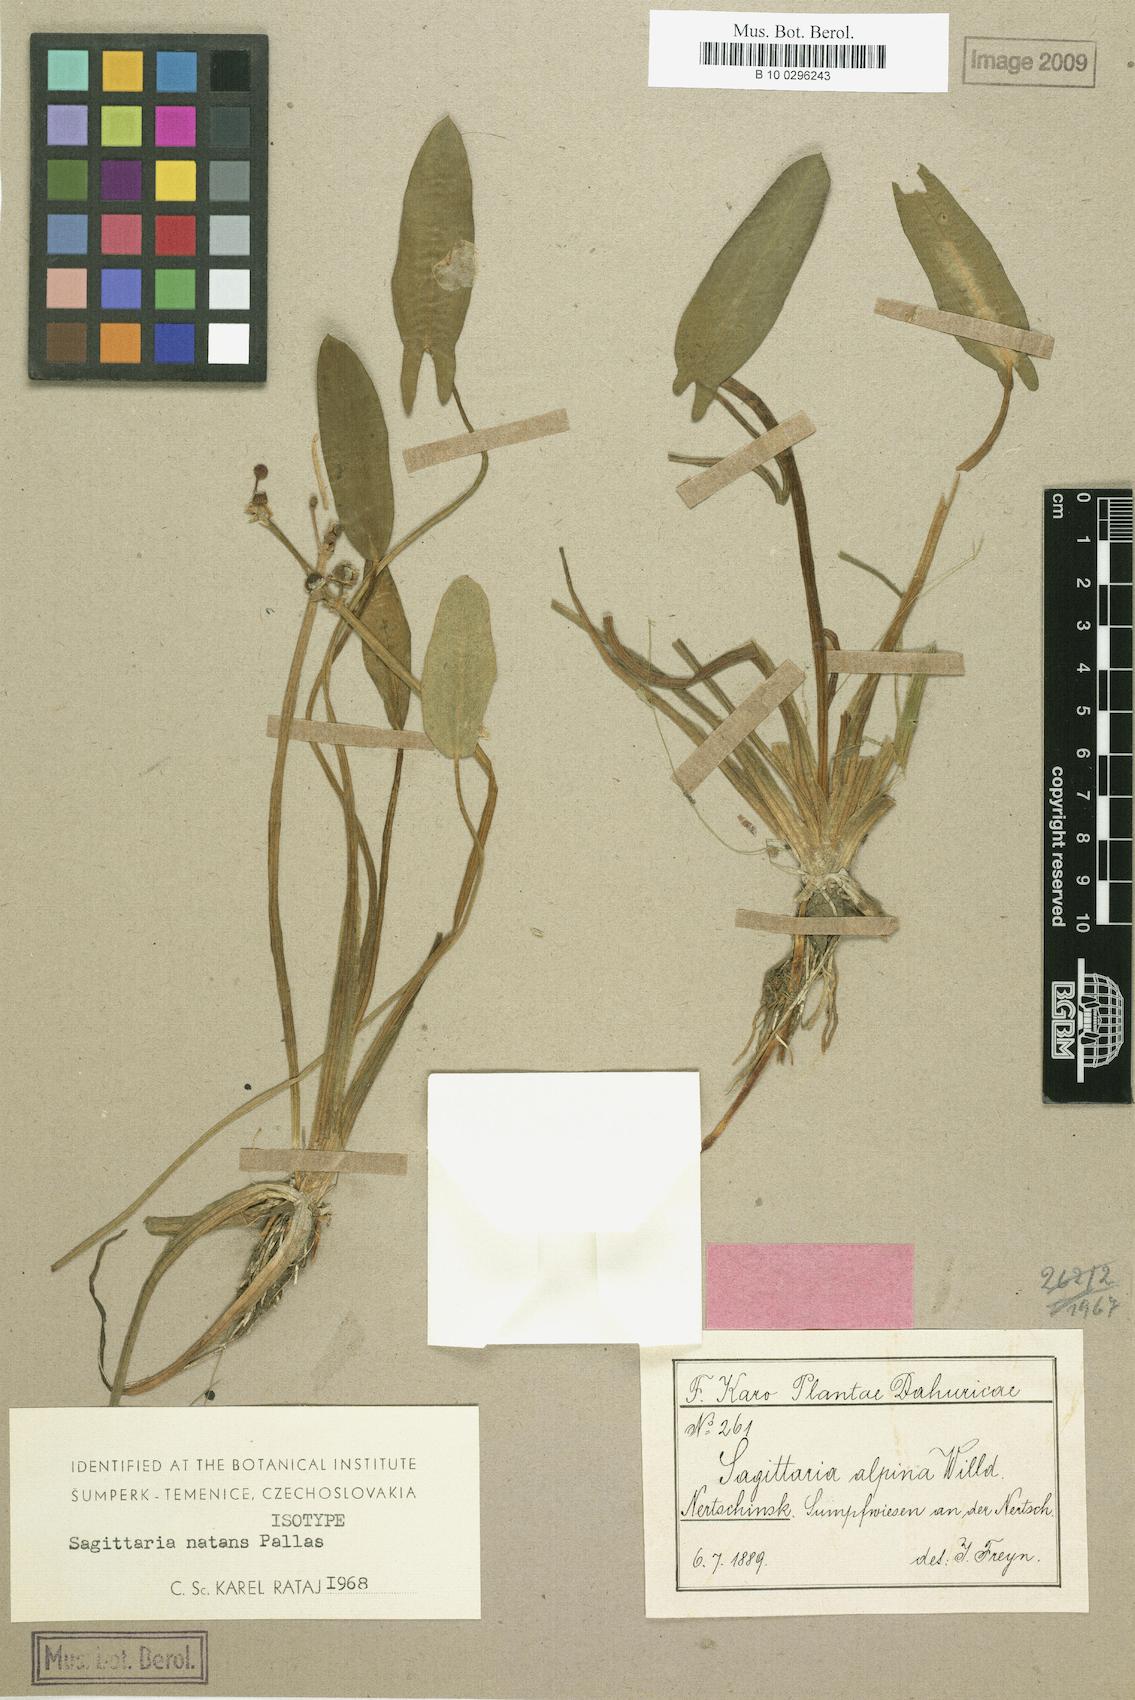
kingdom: Plantae
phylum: Tracheophyta
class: Liliopsida
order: Alismatales
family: Alismataceae
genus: Sagittaria
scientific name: Sagittaria natans
